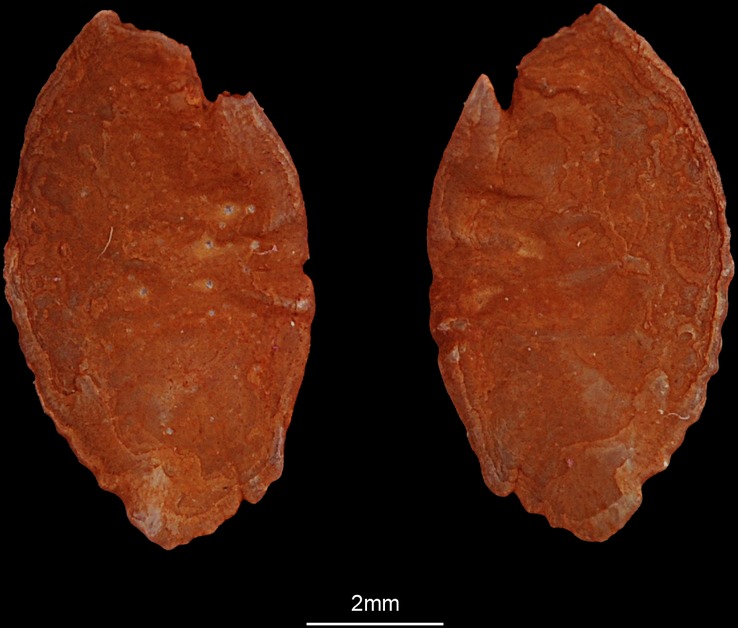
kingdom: Animalia
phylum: Chordata
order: Perciformes
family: Lutjanidae
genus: Lutjanus
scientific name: Lutjanus lutjanus
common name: Bigeye snapper
